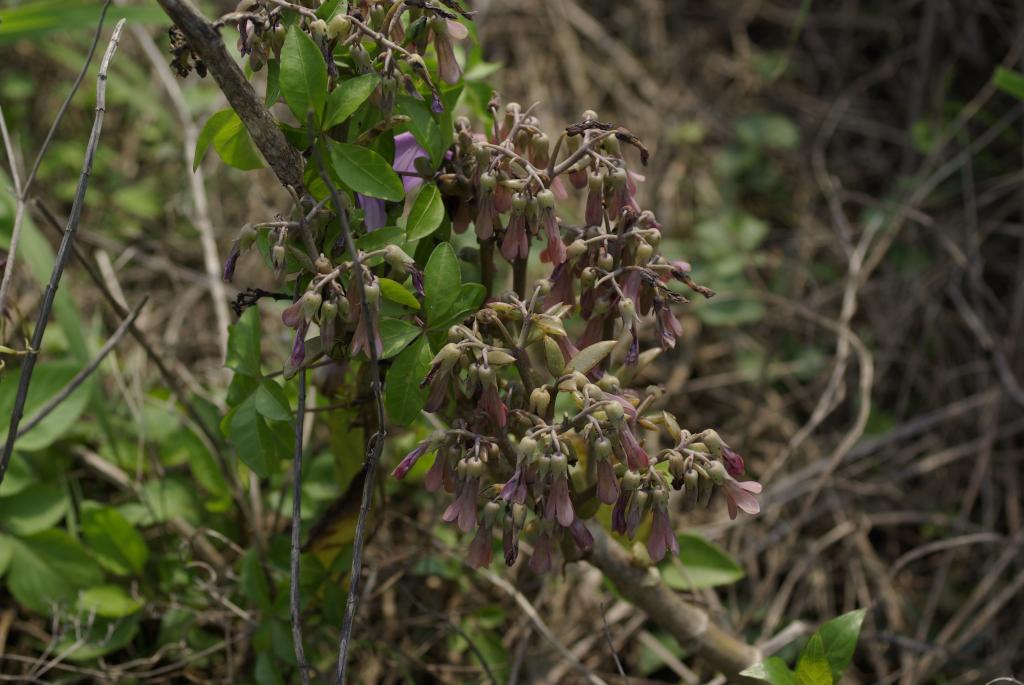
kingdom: Plantae
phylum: Tracheophyta
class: Magnoliopsida
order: Saxifragales
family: Crassulaceae
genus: Kalanchoe
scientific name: Kalanchoe pinnata
